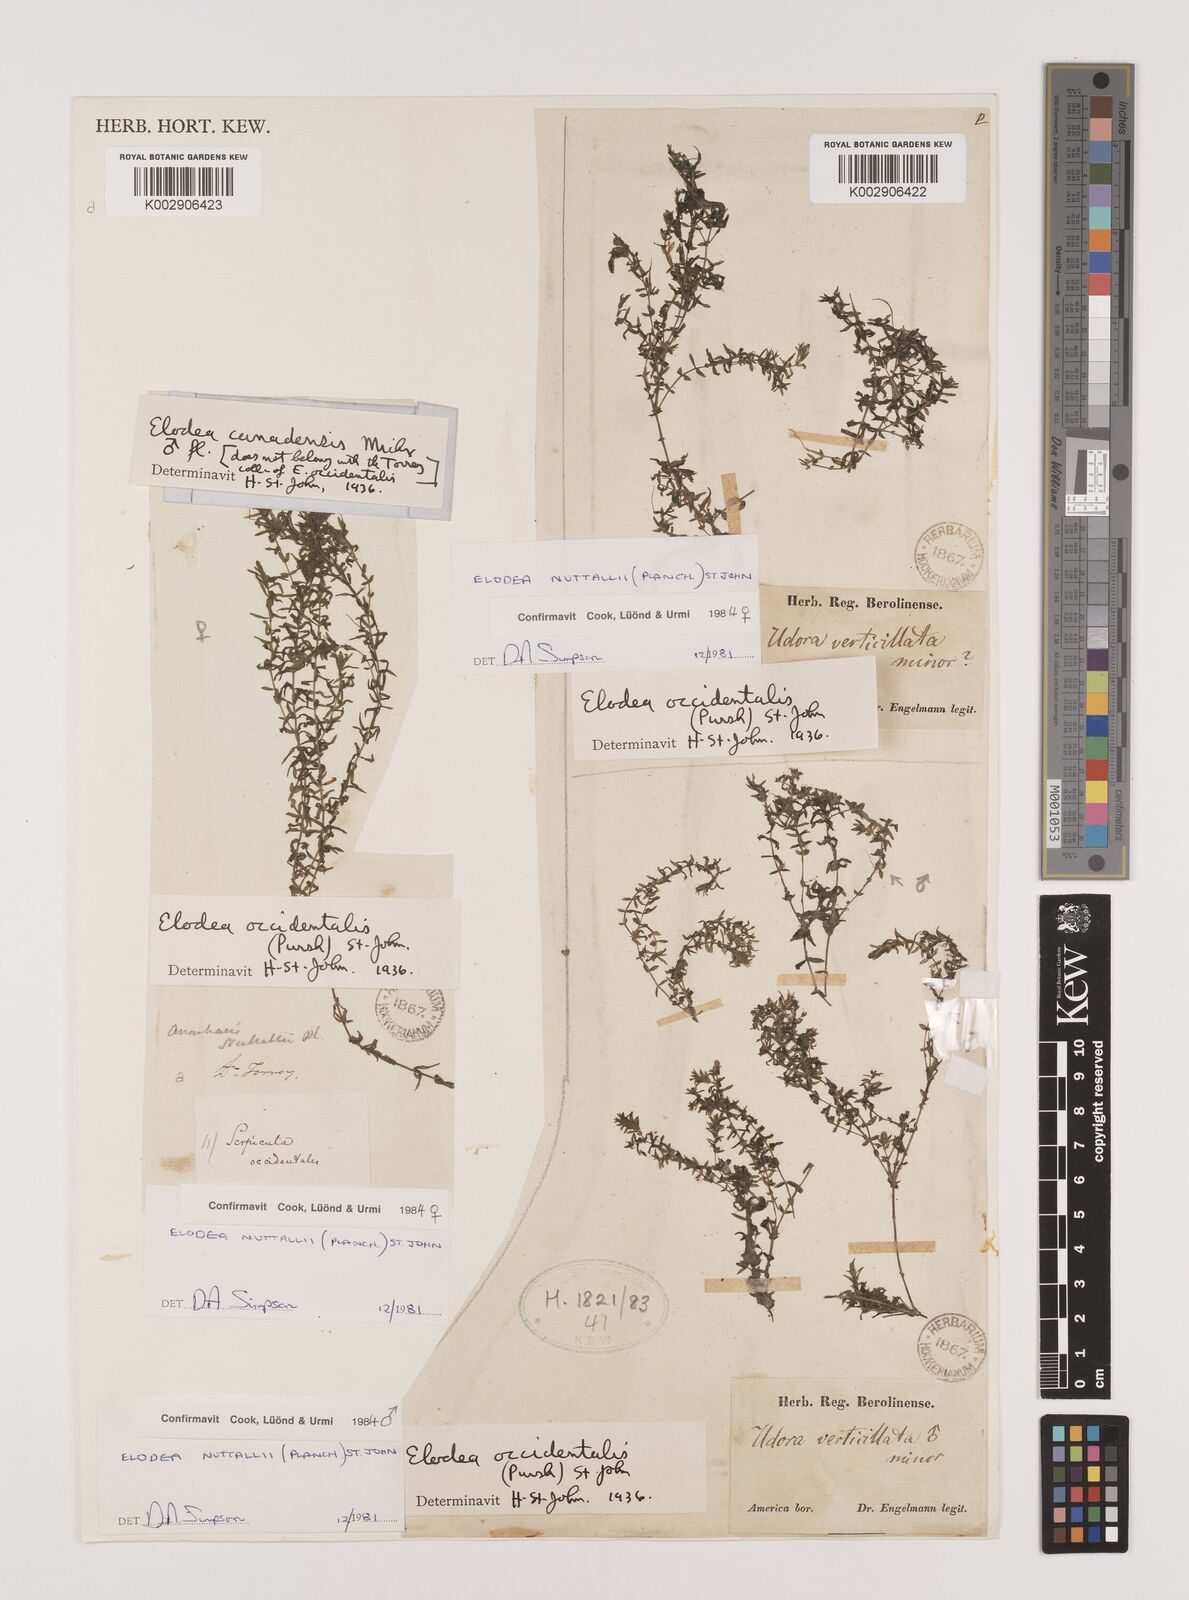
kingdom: Plantae
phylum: Tracheophyta
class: Liliopsida
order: Alismatales
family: Hydrocharitaceae
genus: Elodea
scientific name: Elodea nuttallii
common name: Nuttall's waterweed
